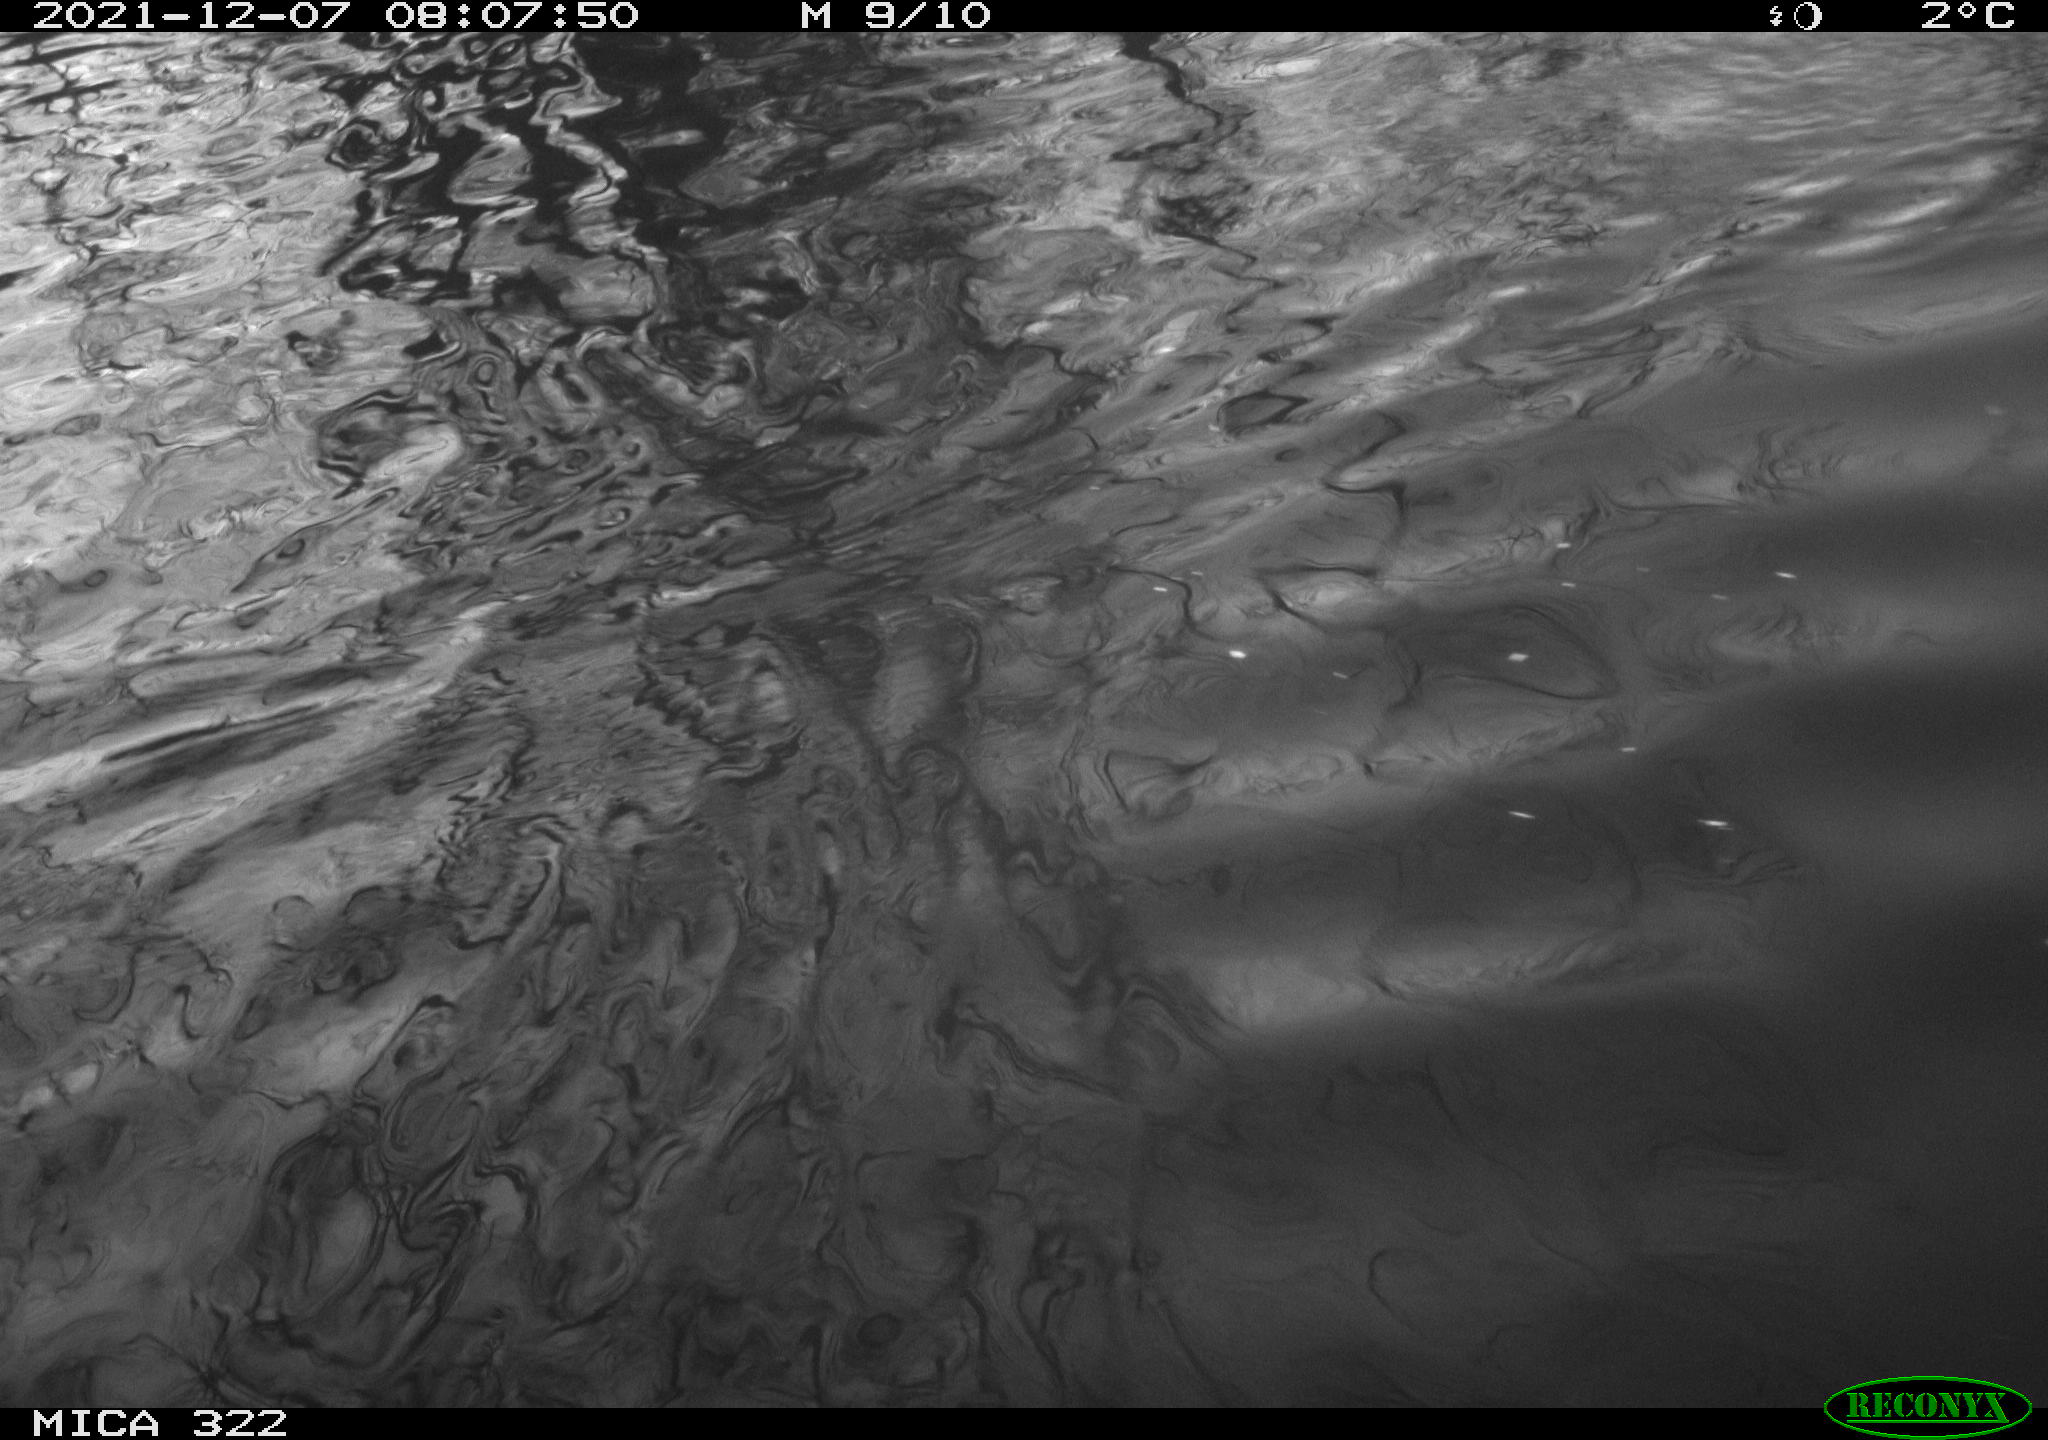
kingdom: Animalia
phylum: Chordata
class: Aves
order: Gruiformes
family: Rallidae
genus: Gallinula
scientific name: Gallinula chloropus
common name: Common moorhen
